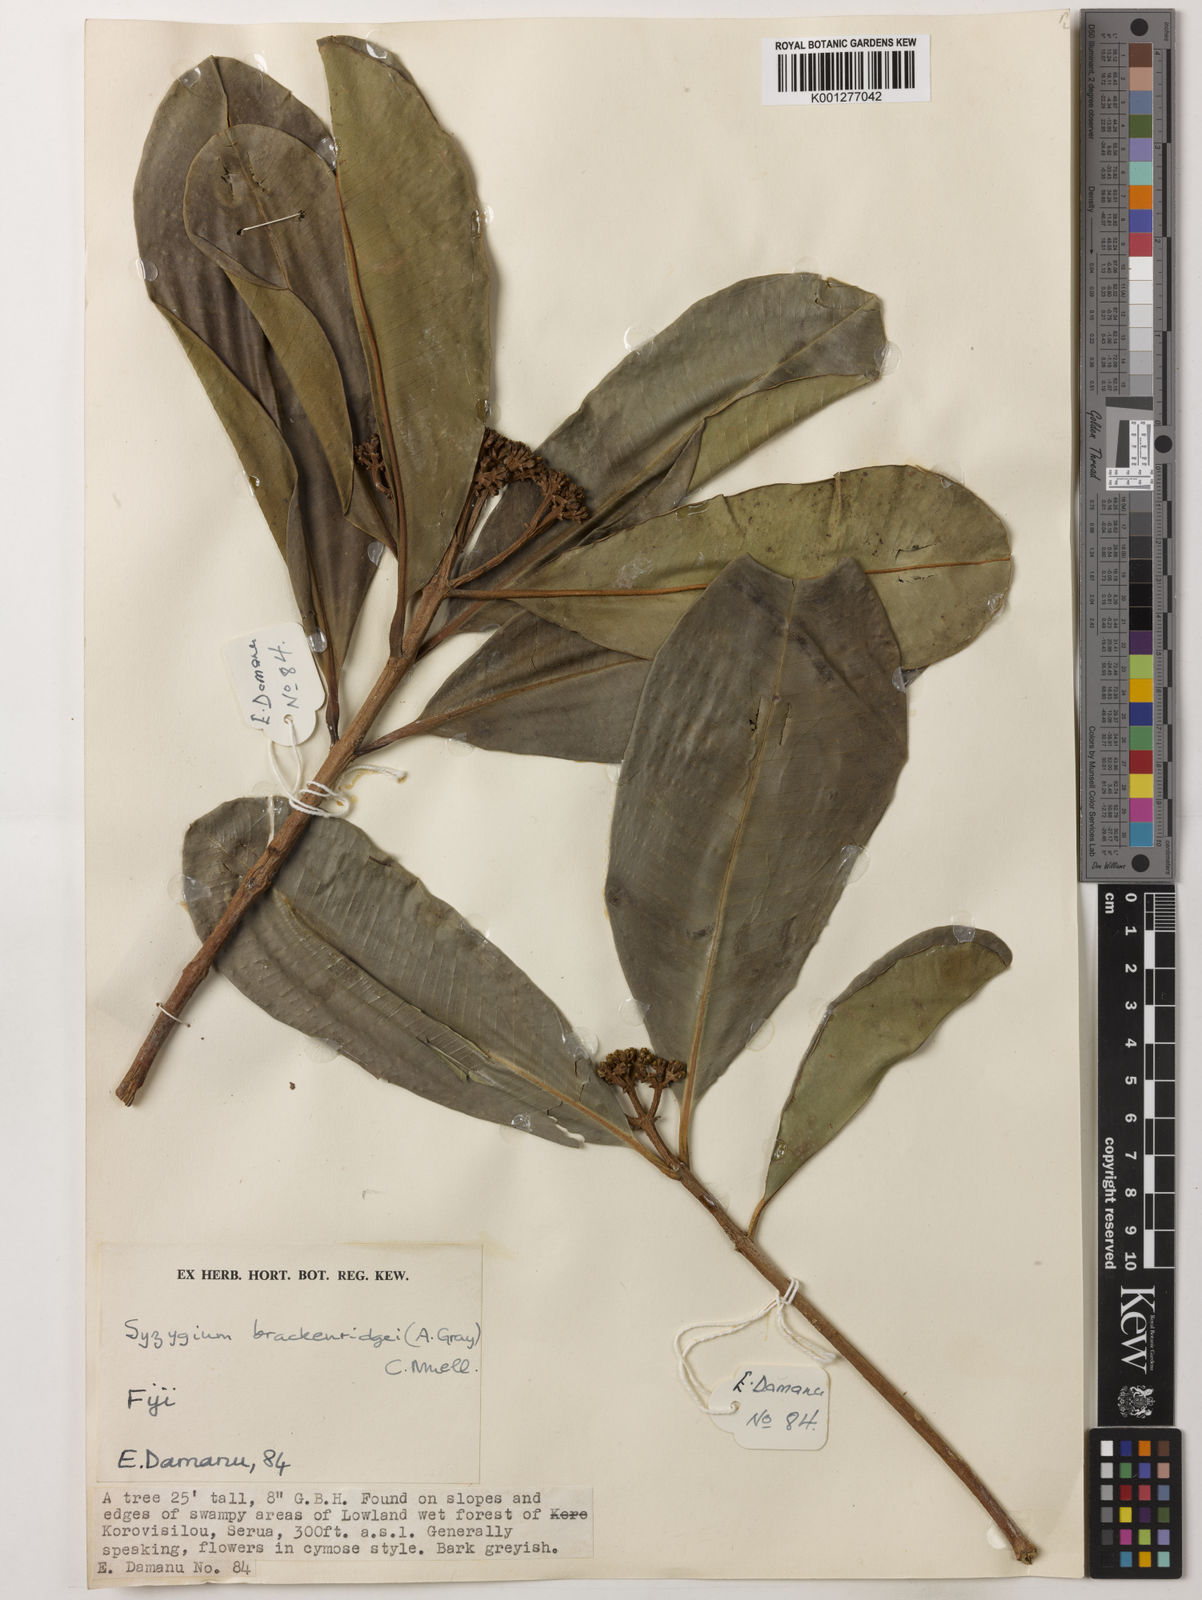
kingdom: Plantae
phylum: Tracheophyta
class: Magnoliopsida
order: Myrtales
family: Myrtaceae
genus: Syzygium
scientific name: Syzygium
